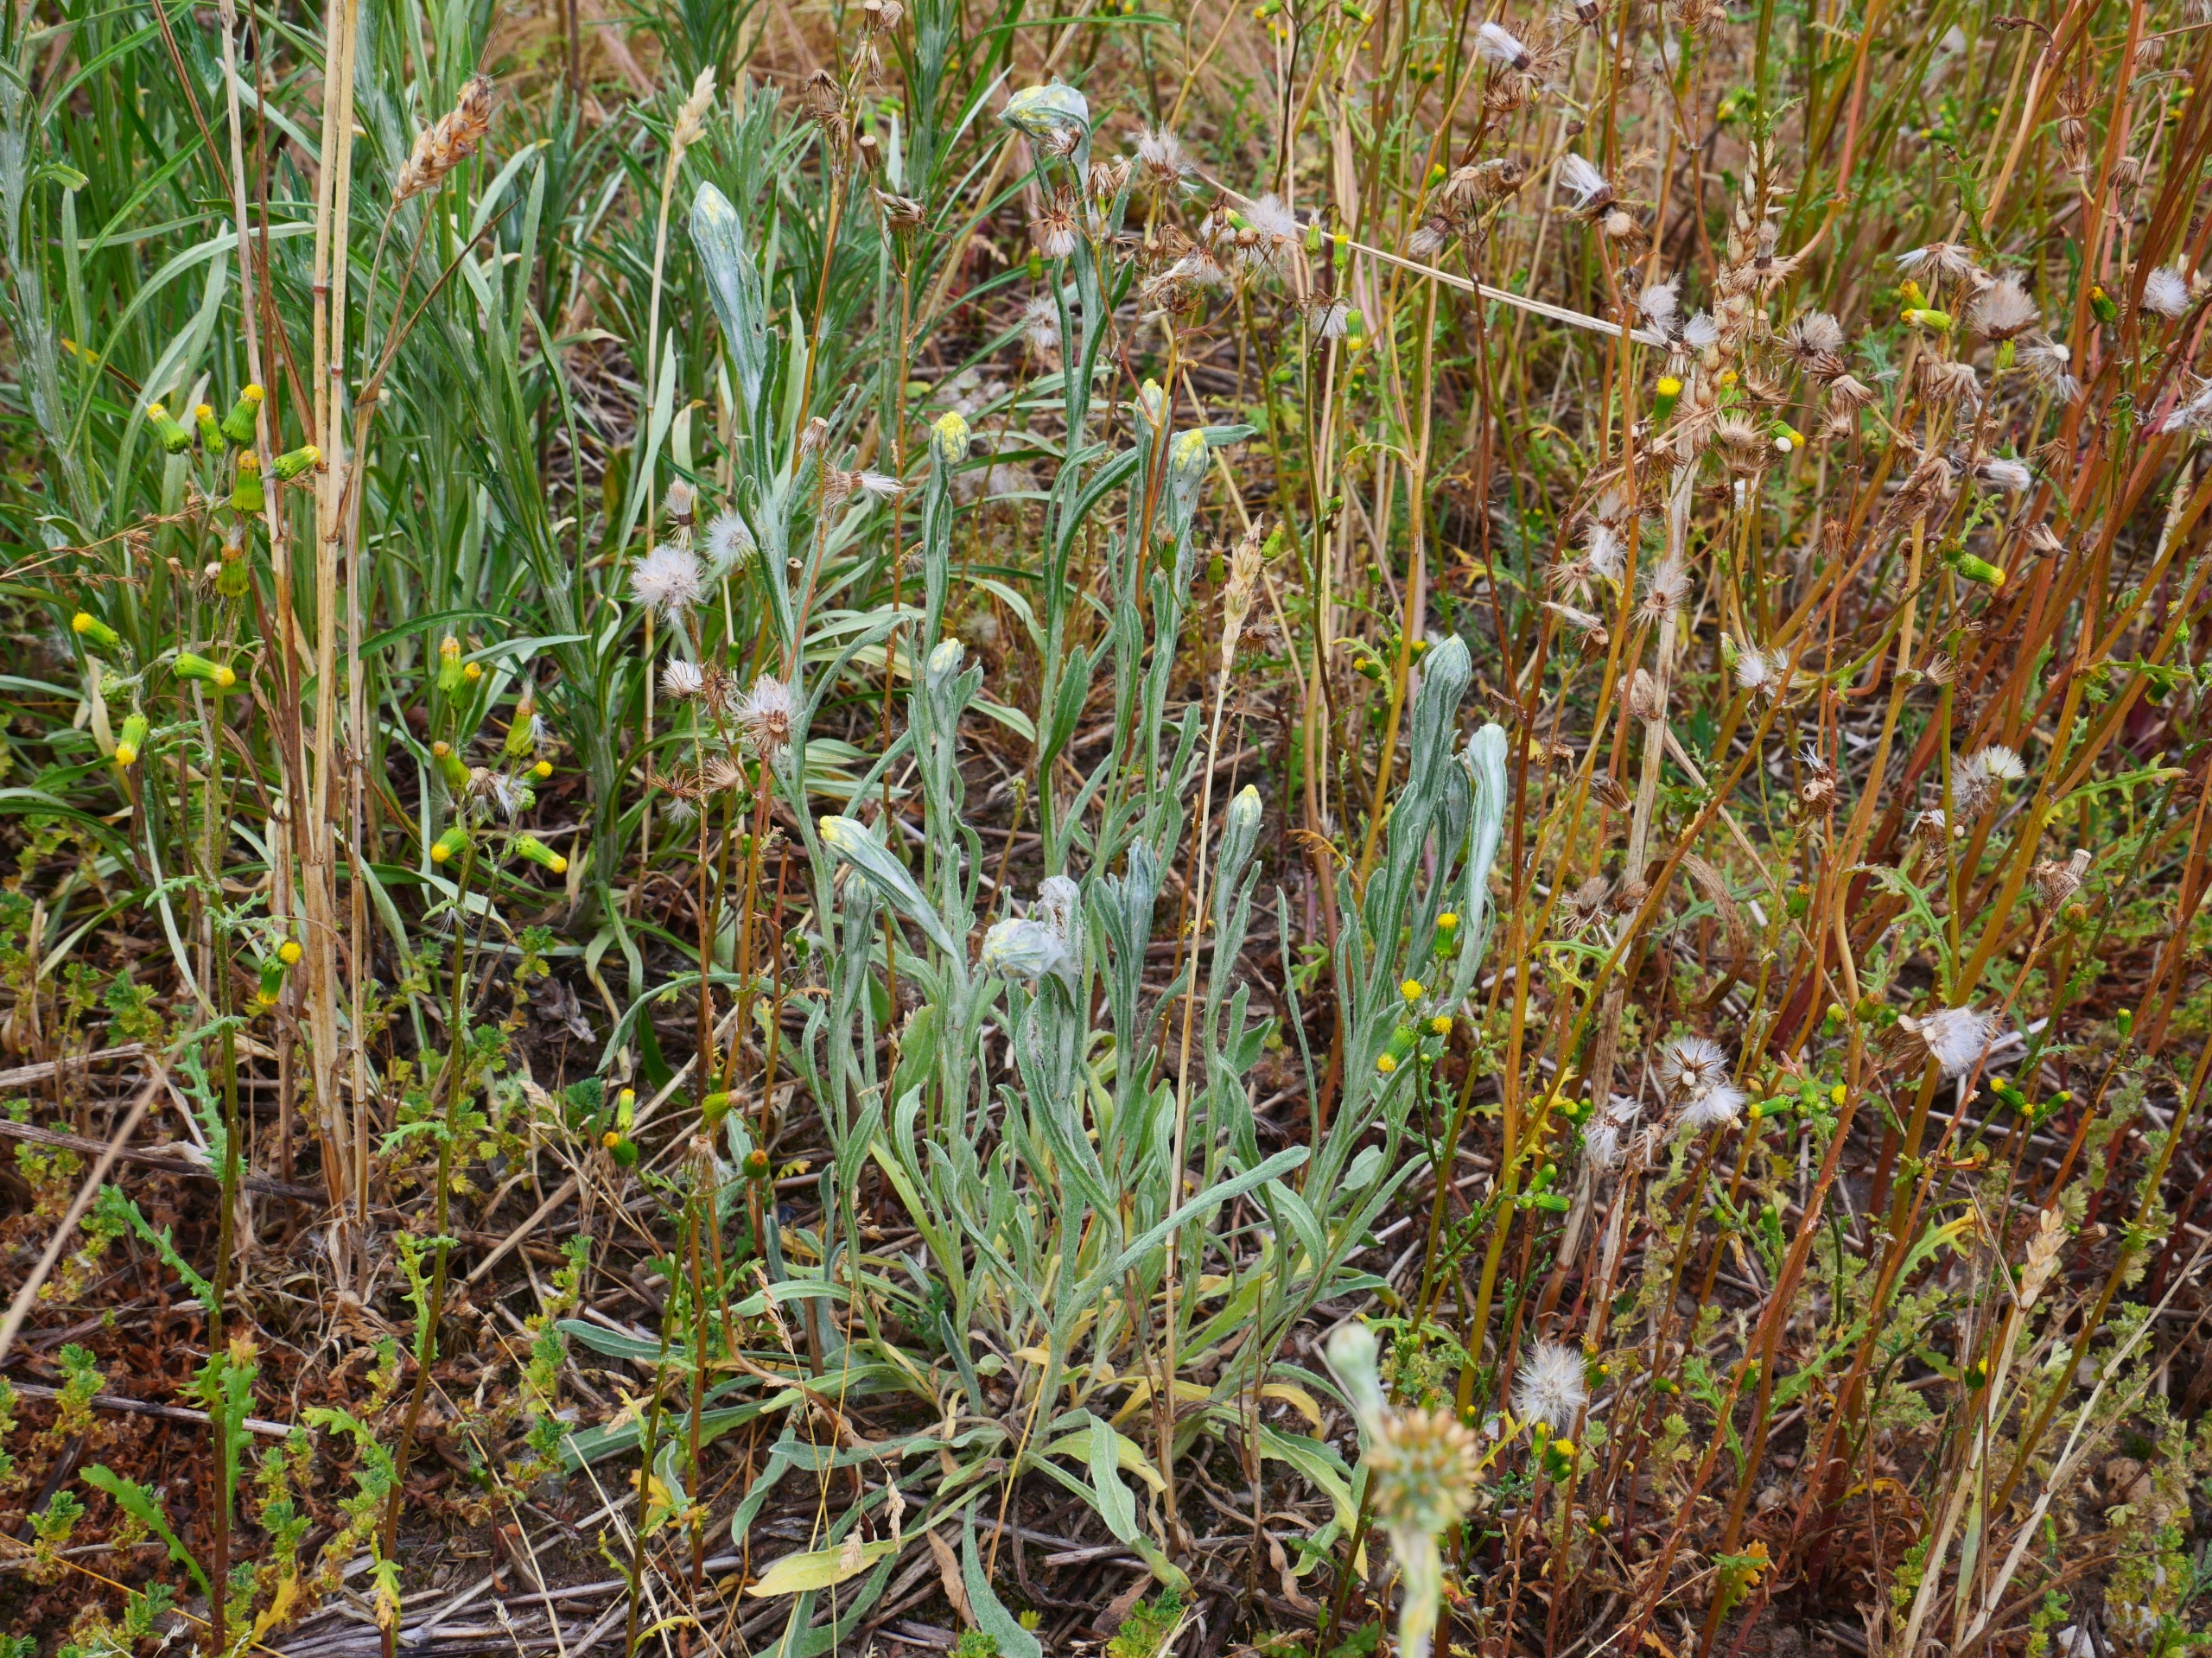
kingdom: Plantae
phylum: Tracheophyta
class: Magnoliopsida
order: Asterales
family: Asteraceae
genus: Helichrysum
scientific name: Helichrysum arenarium
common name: Gul evighedsblomst
